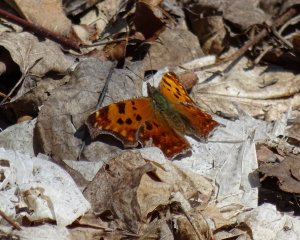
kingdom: Animalia
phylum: Arthropoda
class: Insecta
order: Lepidoptera
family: Nymphalidae
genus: Polygonia
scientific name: Polygonia comma
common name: Eastern Comma
